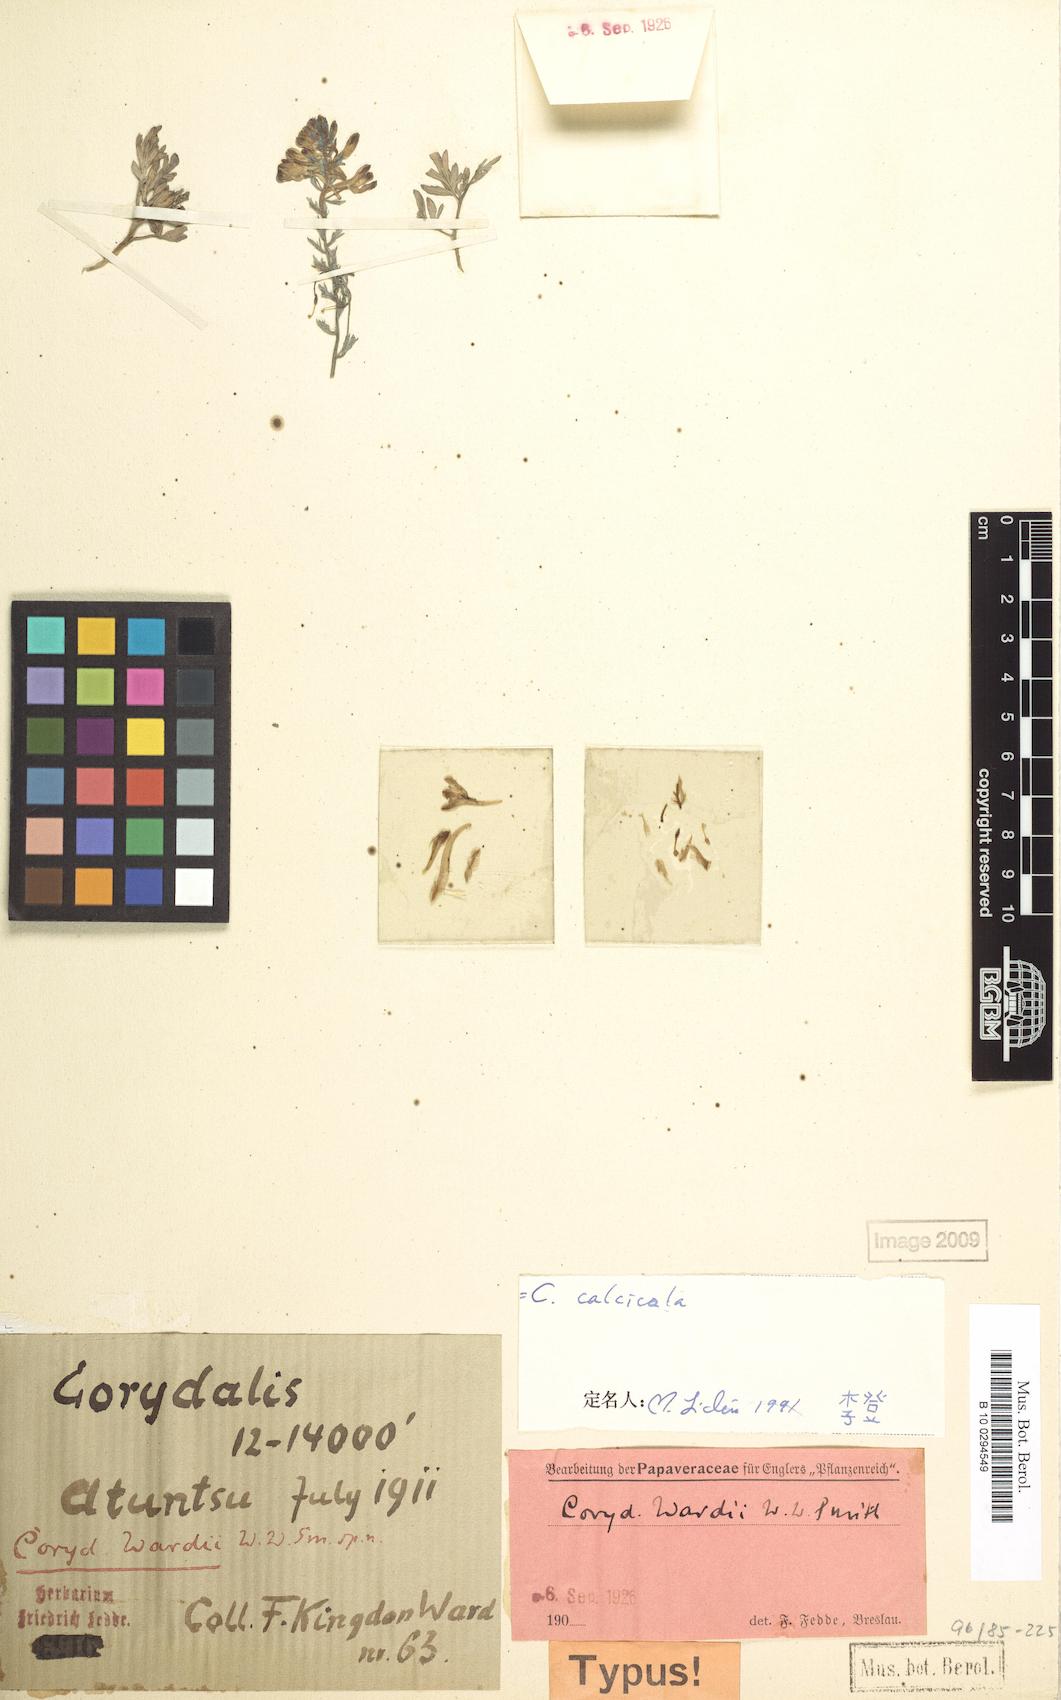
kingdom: Plantae
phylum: Tracheophyta
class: Magnoliopsida
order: Ranunculales
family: Papaveraceae
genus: Corydalis
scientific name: Corydalis hannae
